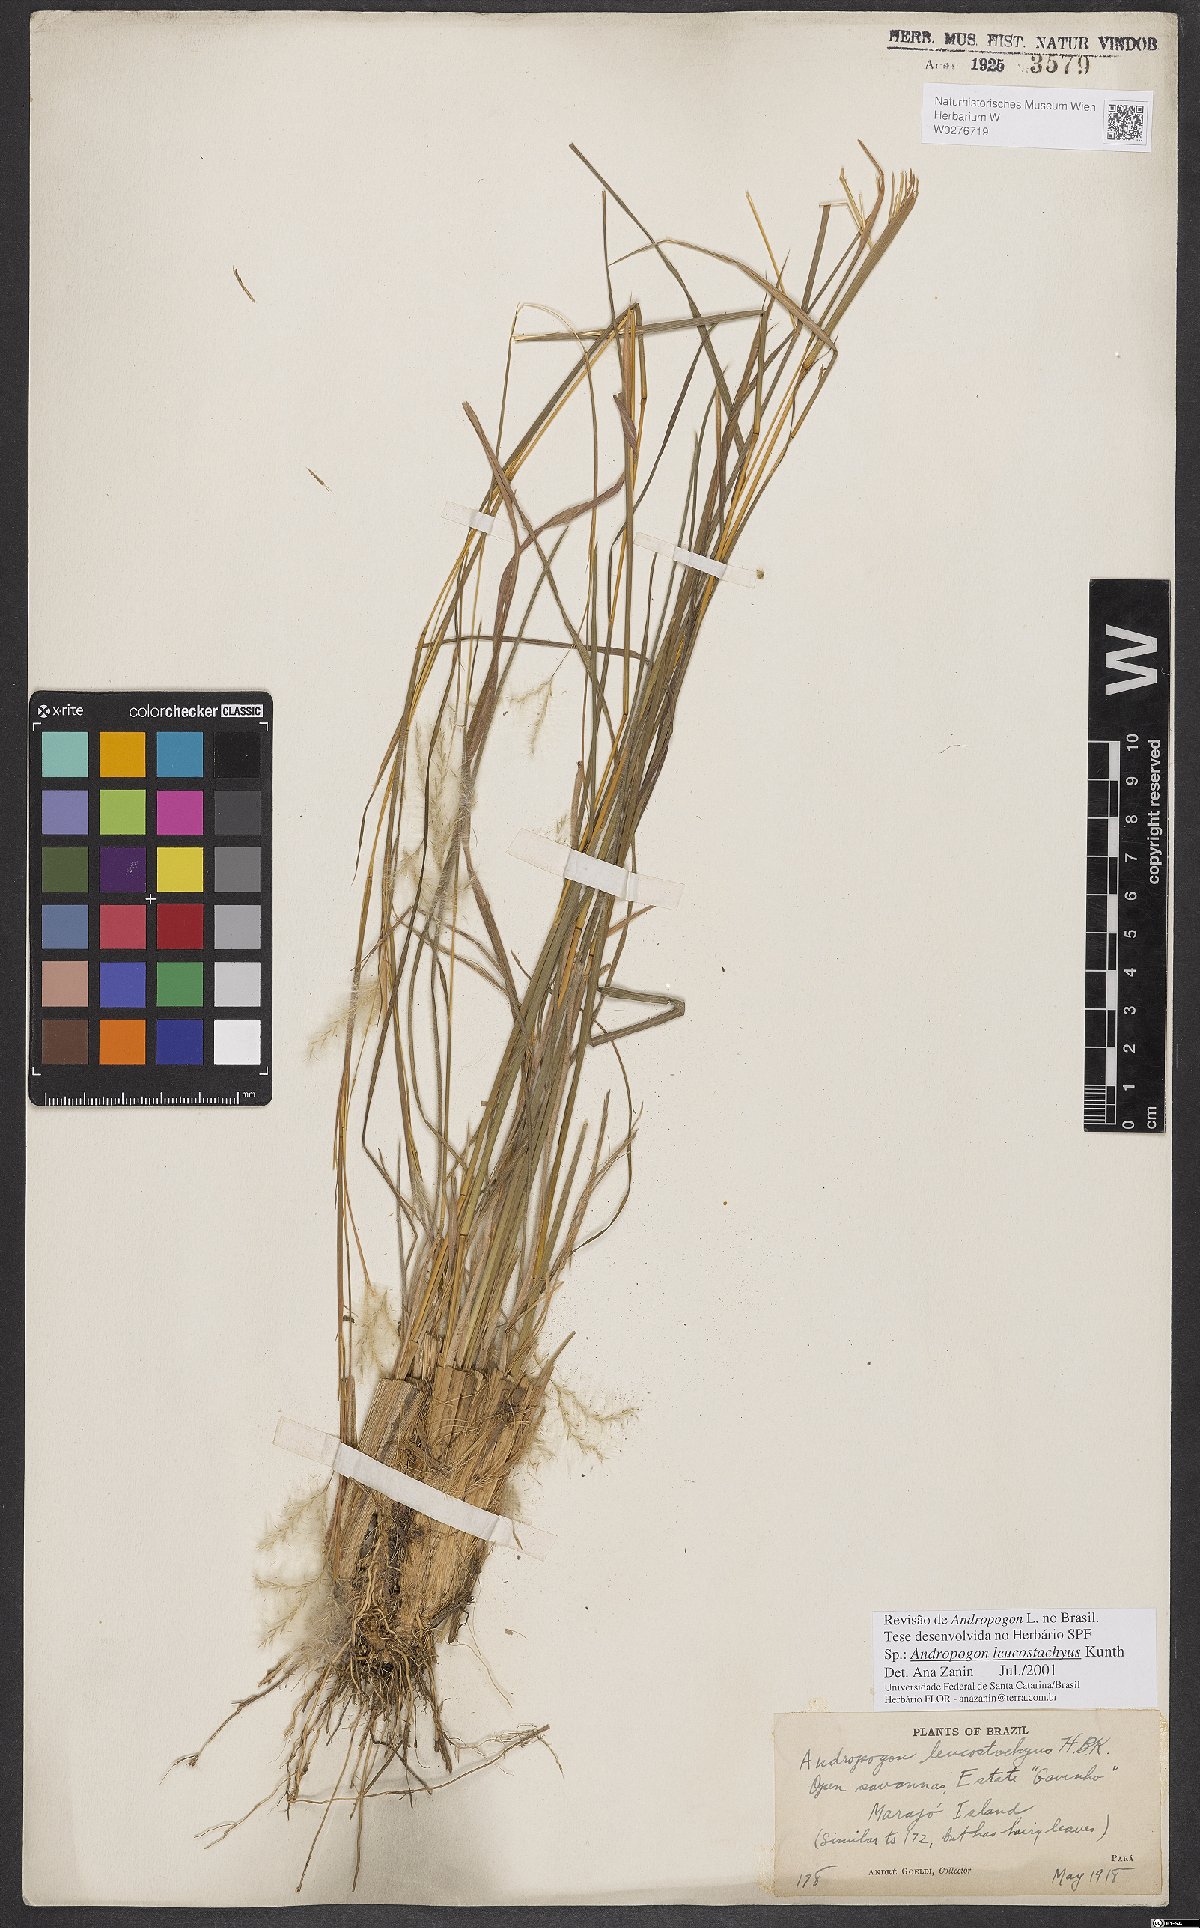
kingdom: Plantae
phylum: Tracheophyta
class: Liliopsida
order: Poales
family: Poaceae
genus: Andropogon
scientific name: Andropogon leucostachyus
